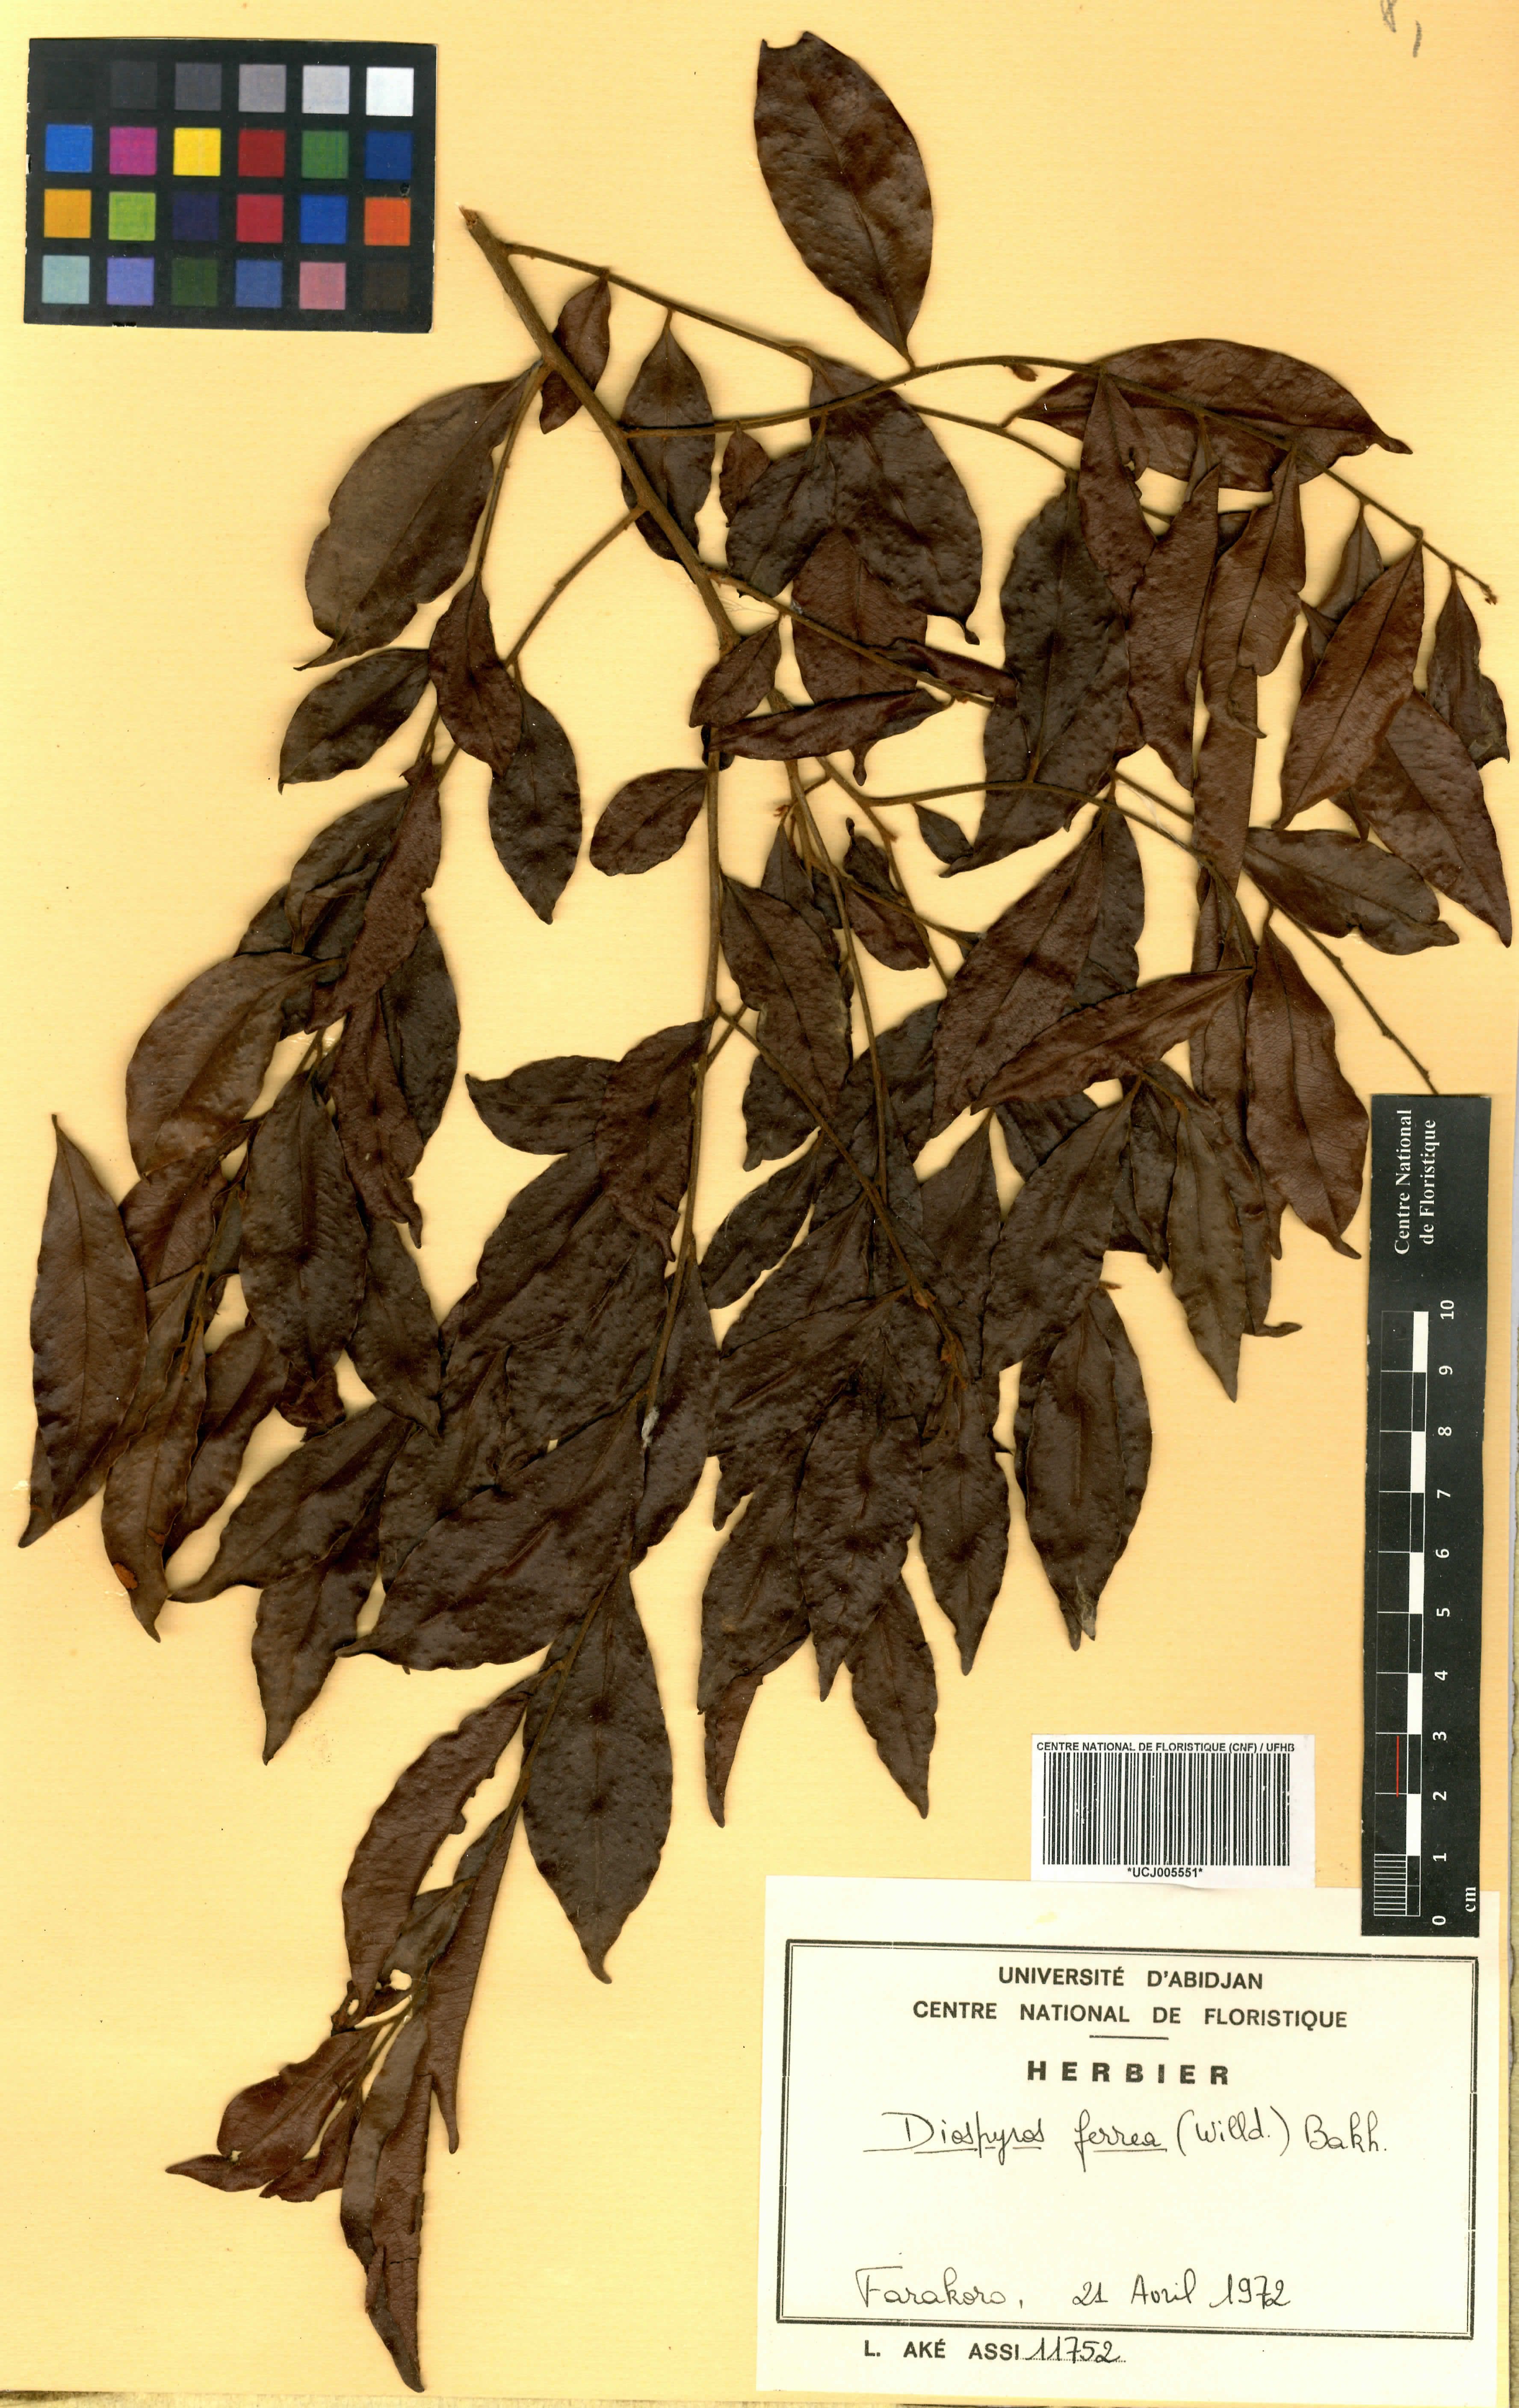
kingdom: Plantae
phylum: Tracheophyta
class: Magnoliopsida
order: Ericales
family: Ebenaceae
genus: Diospyros
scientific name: Diospyros ferrea
